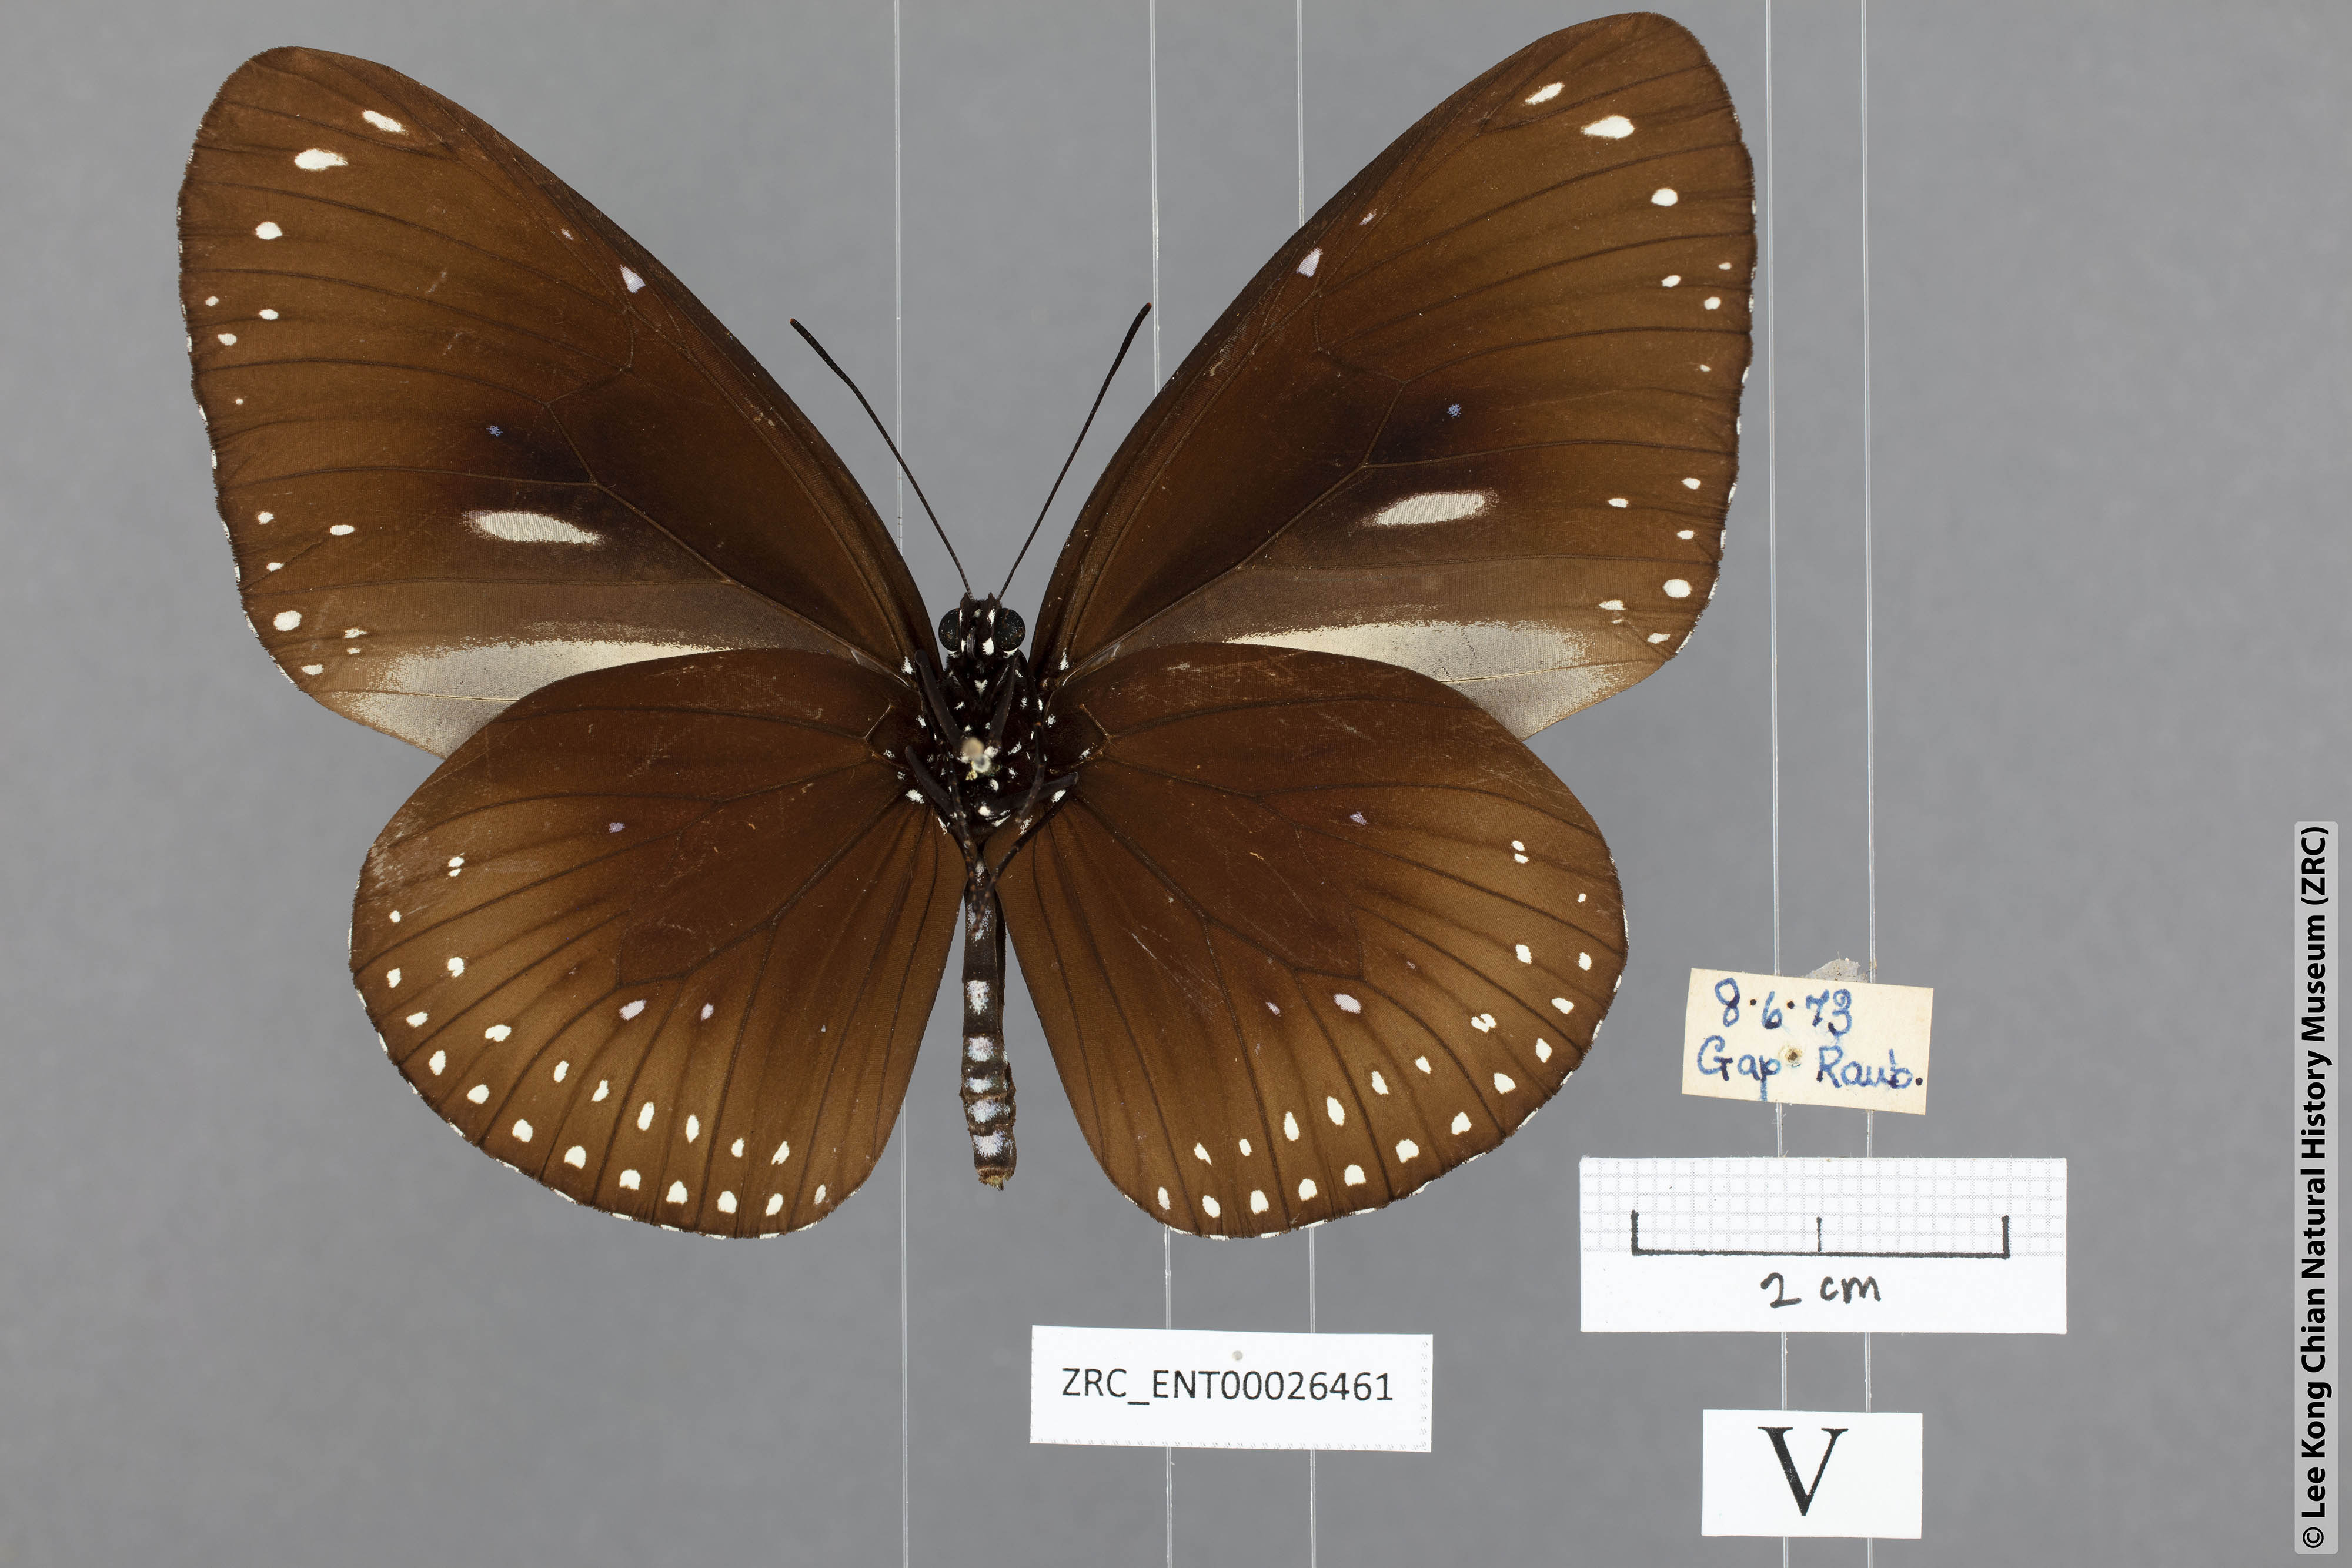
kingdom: Animalia
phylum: Arthropoda
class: Insecta
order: Lepidoptera
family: Nymphalidae
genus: Euploea
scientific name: Euploea midamus
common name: Blue-spotted crow butterfly
